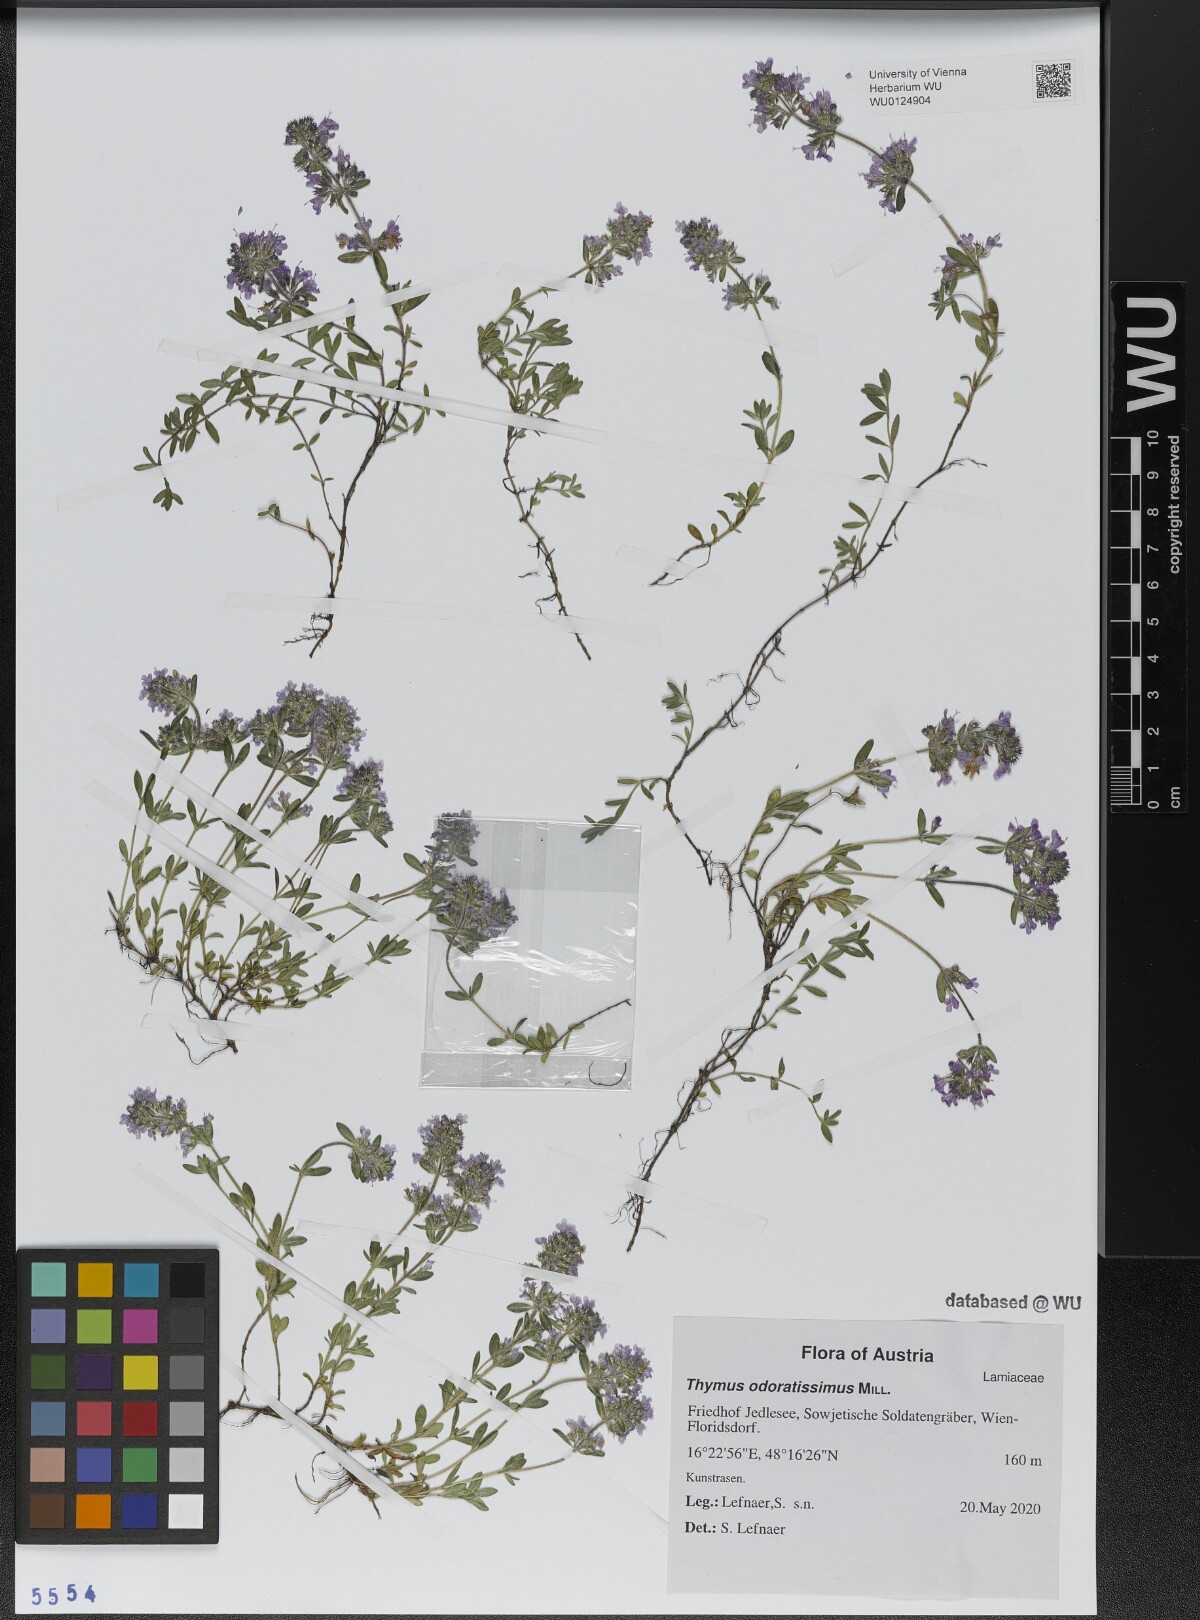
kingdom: Plantae
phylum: Tracheophyta
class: Magnoliopsida
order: Lamiales
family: Lamiaceae
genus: Thymus
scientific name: Thymus odoratissimus
